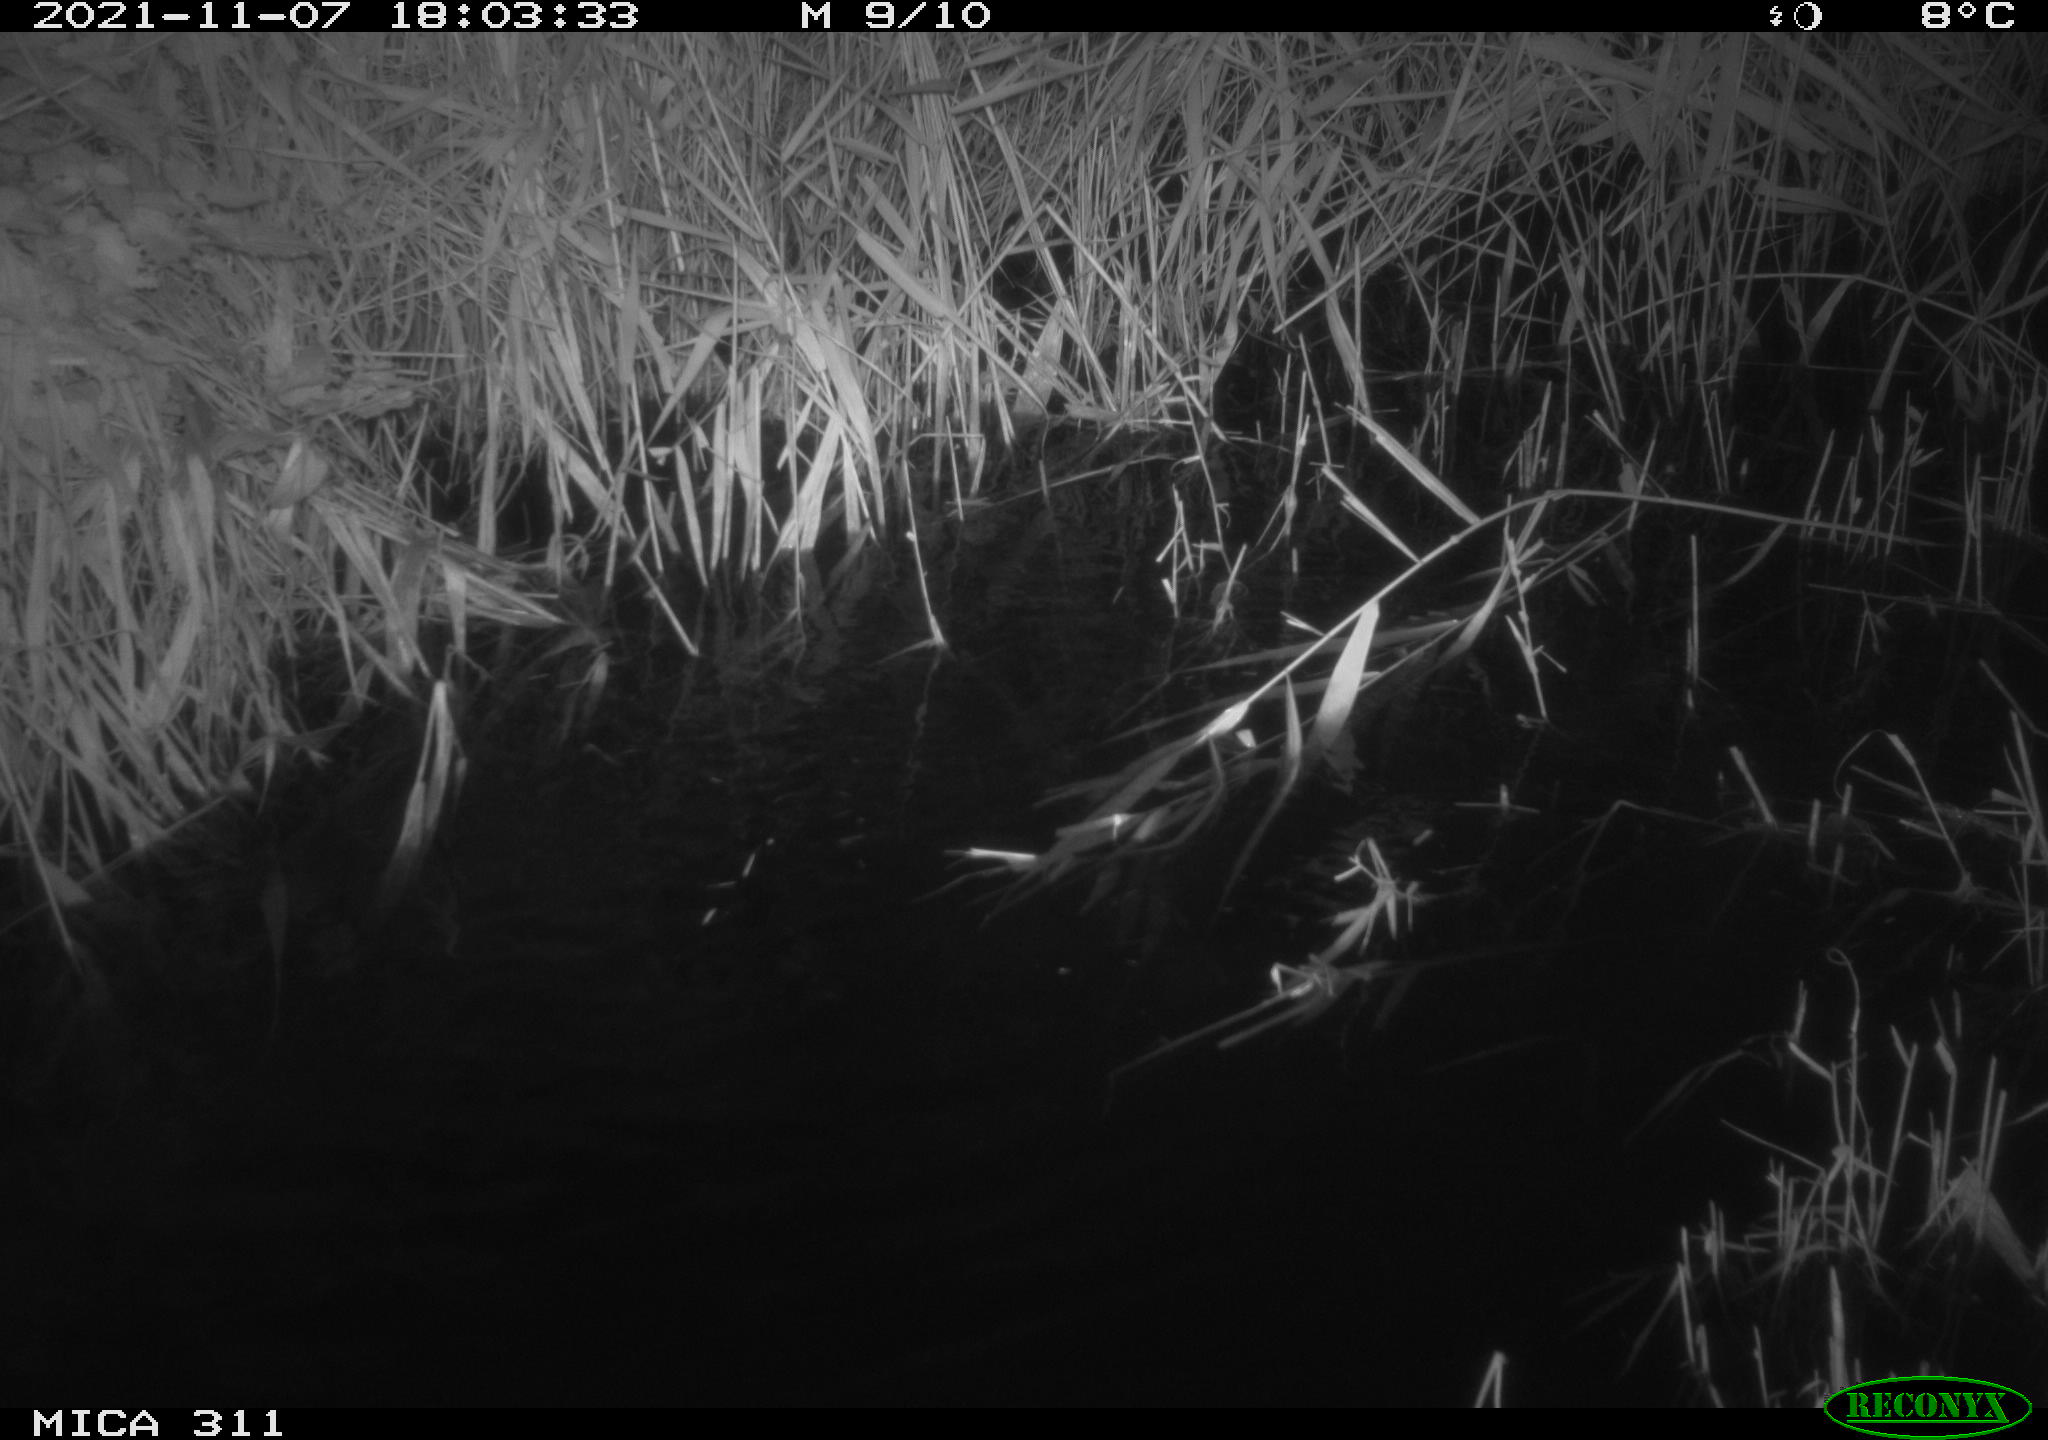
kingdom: Animalia
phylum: Chordata
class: Mammalia
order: Rodentia
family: Muridae
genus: Rattus
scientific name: Rattus norvegicus
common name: Brown rat
